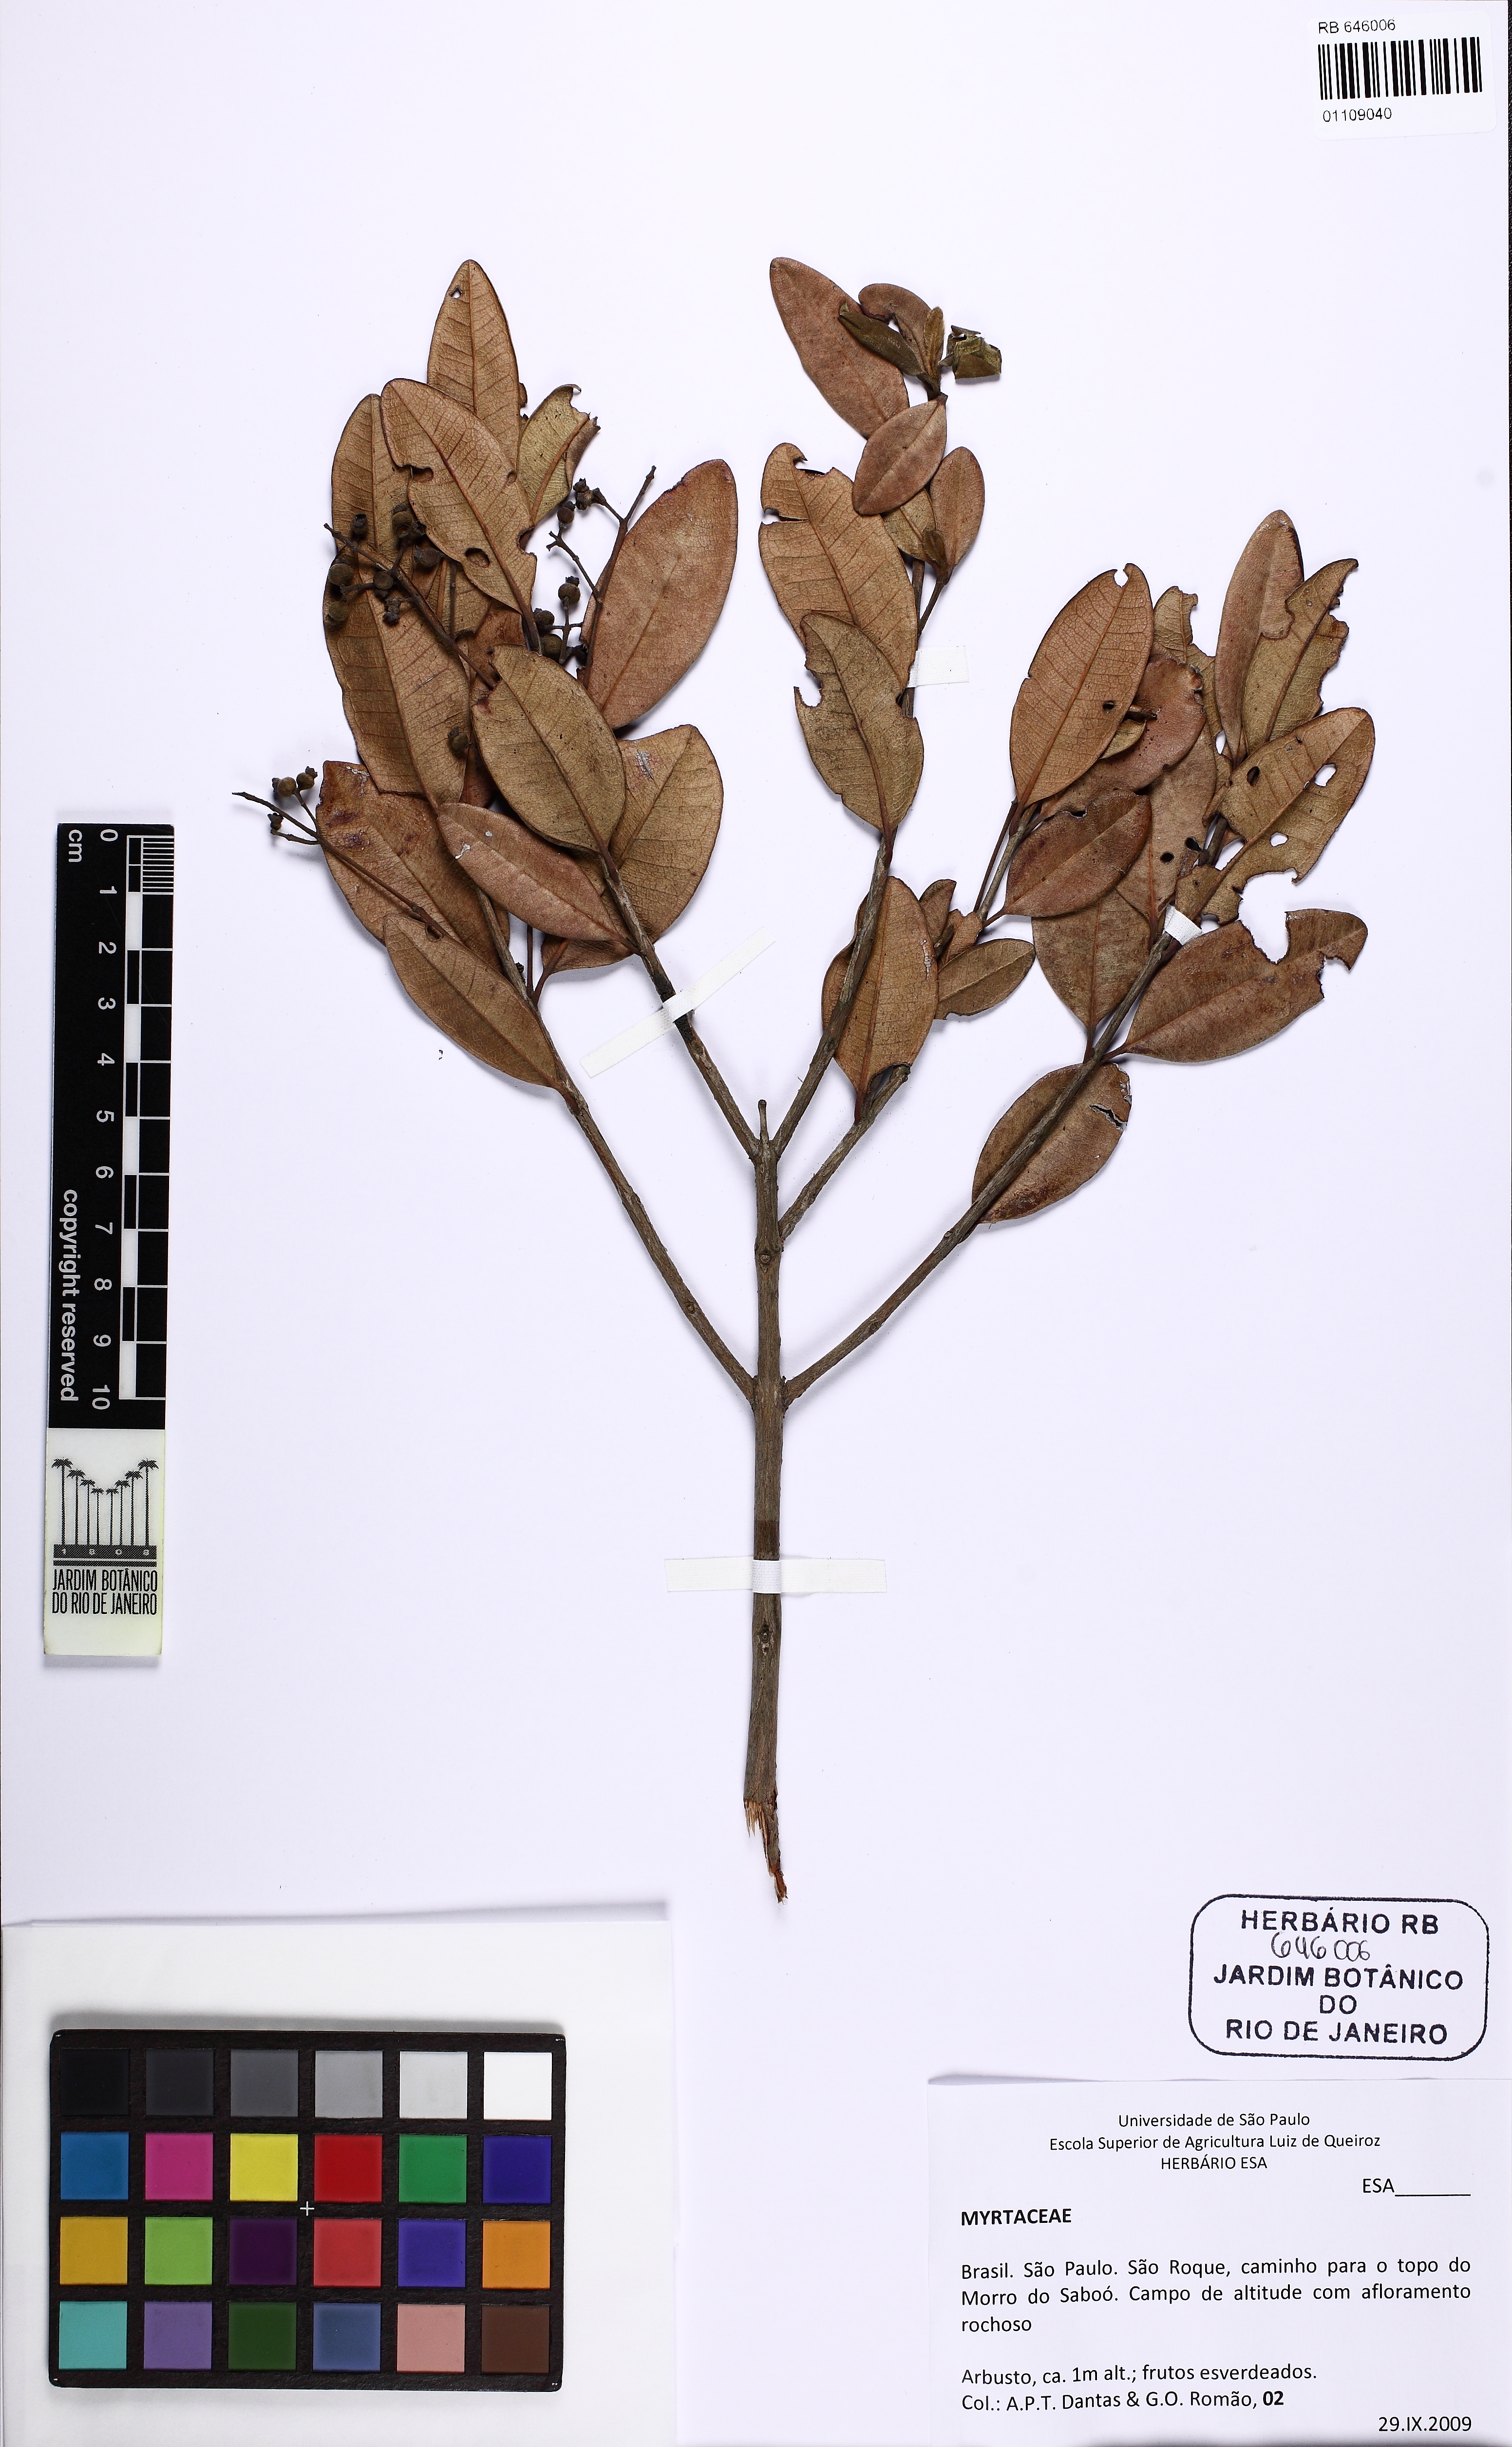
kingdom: Plantae
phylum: Tracheophyta
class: Magnoliopsida
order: Myrtales
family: Myrtaceae
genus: Myrcia
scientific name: Myrcia palustris
